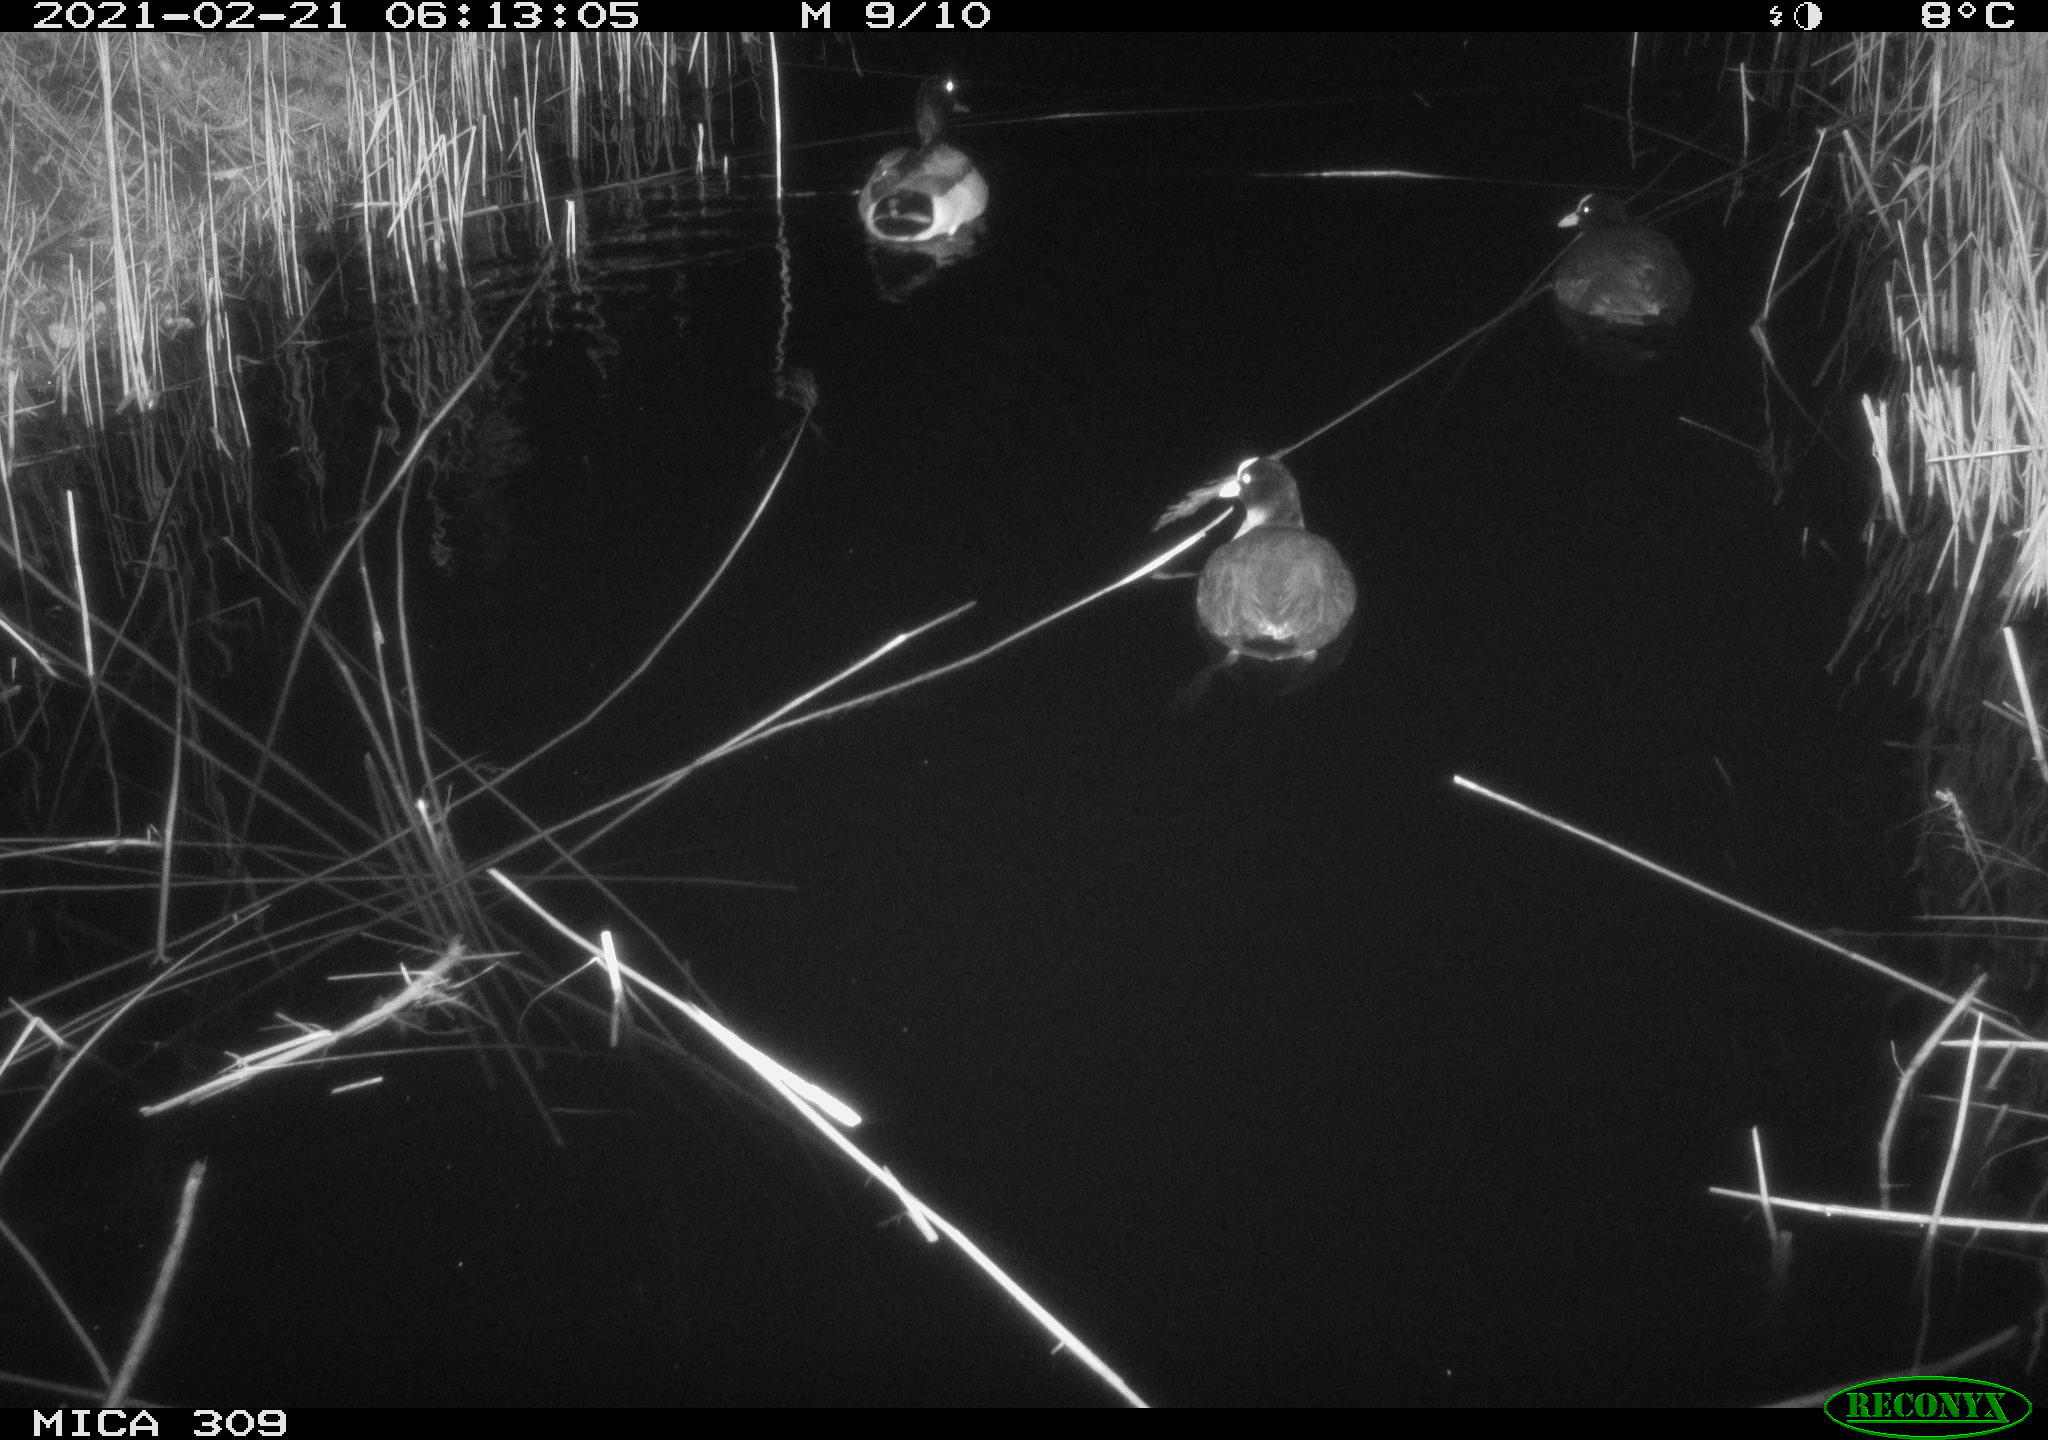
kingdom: Animalia
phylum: Chordata
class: Aves
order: Anseriformes
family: Anatidae
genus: Anas
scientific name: Anas platyrhynchos
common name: Mallard
